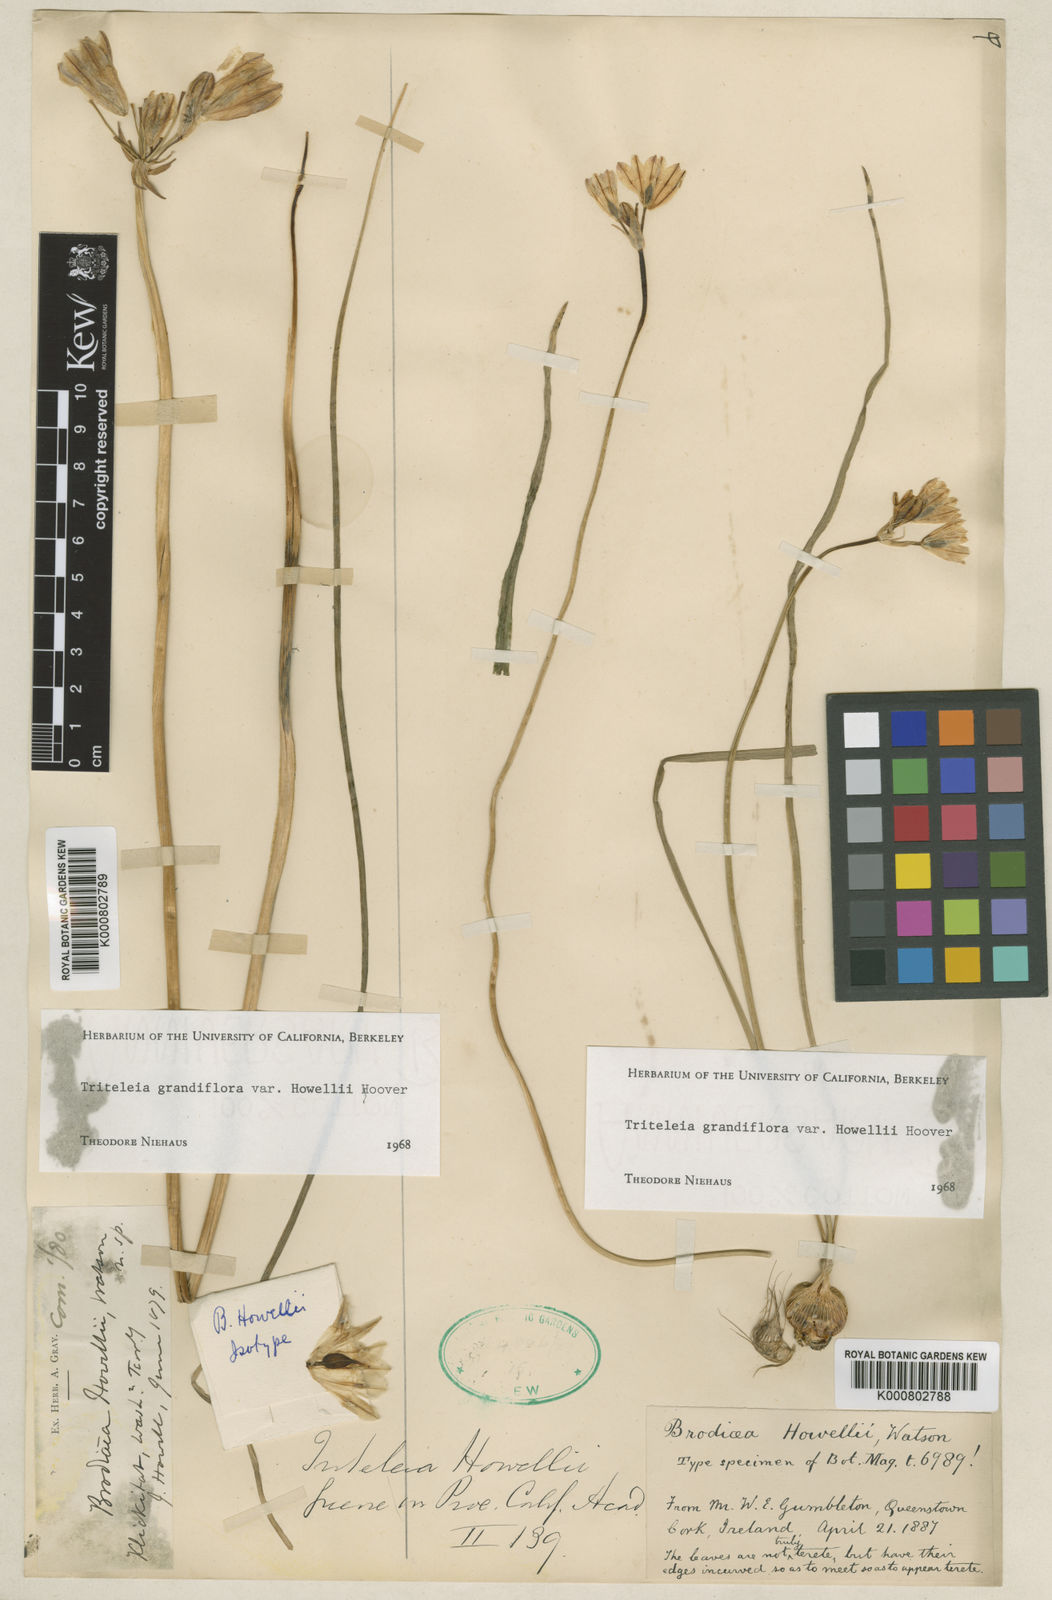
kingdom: Plantae
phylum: Tracheophyta
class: Liliopsida
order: Asparagales
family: Asparagaceae
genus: Triteleia
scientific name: Triteleia grandiflora
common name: Wild hyacinth
